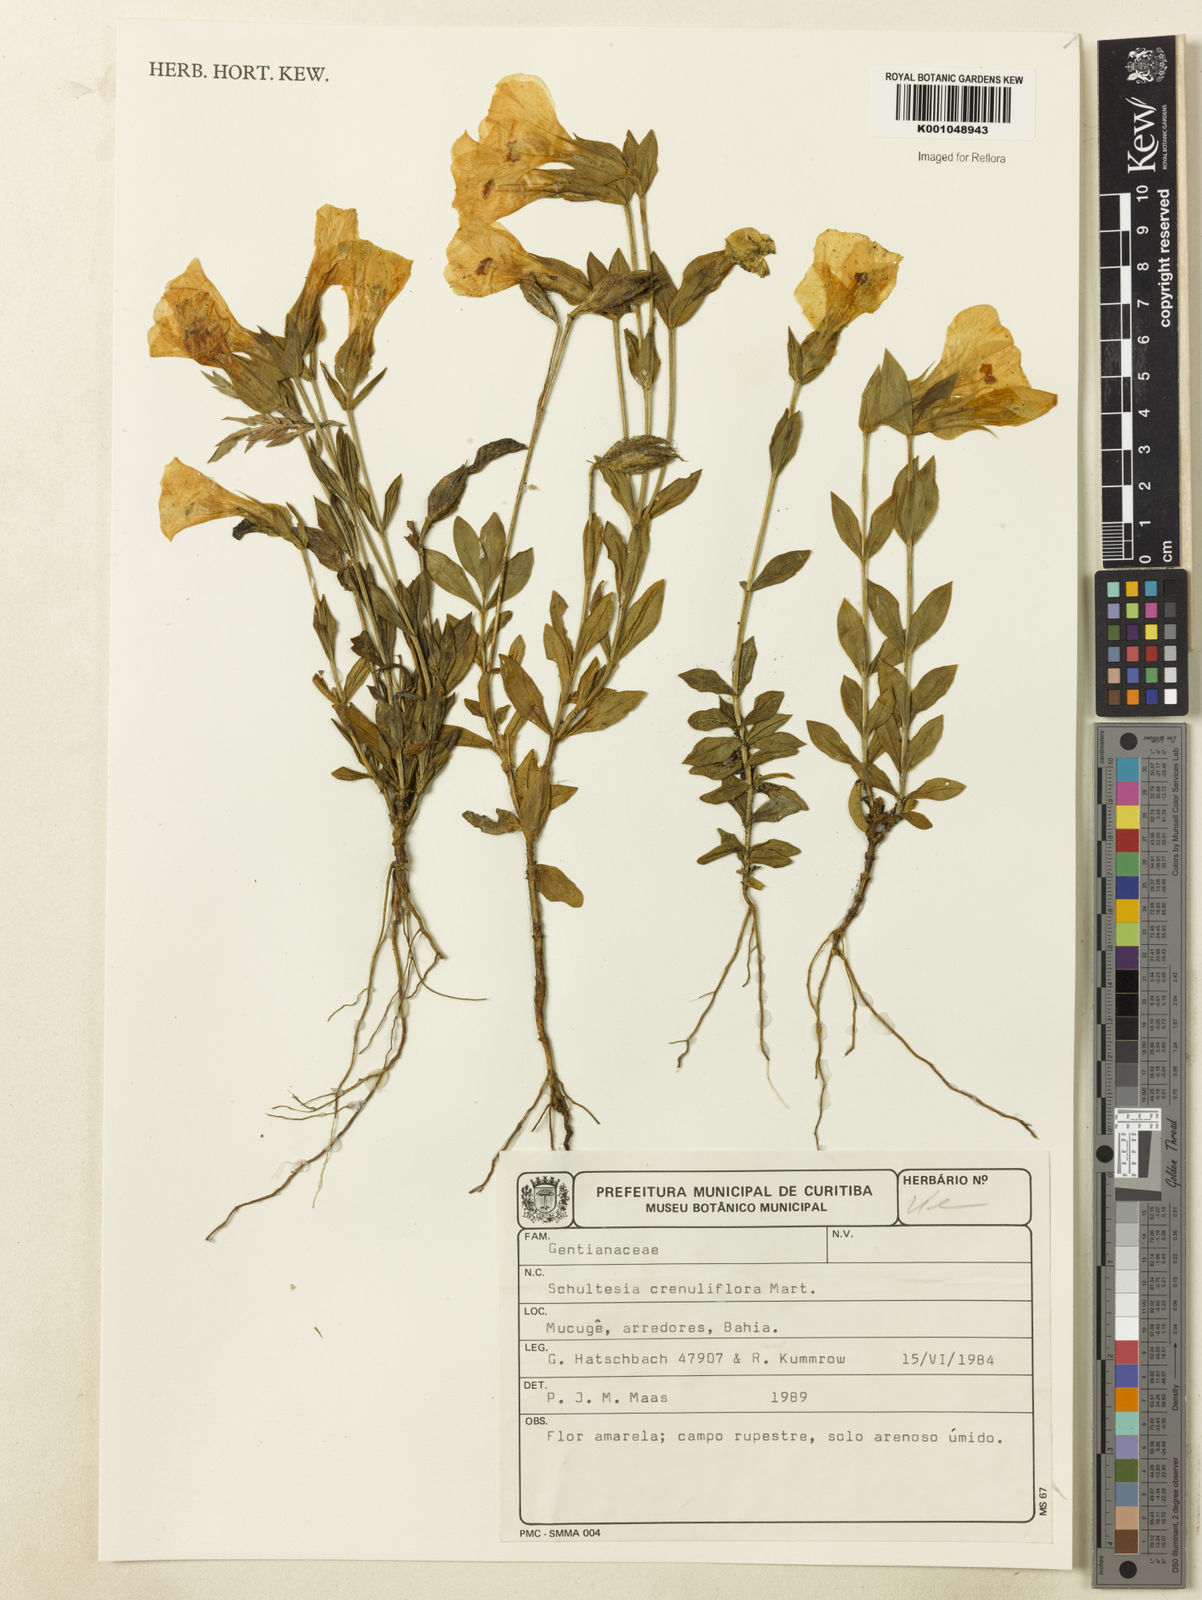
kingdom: Plantae
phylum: Tracheophyta
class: Magnoliopsida
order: Gentianales
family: Gentianaceae
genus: Schultesia
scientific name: Schultesia crenuliflora
